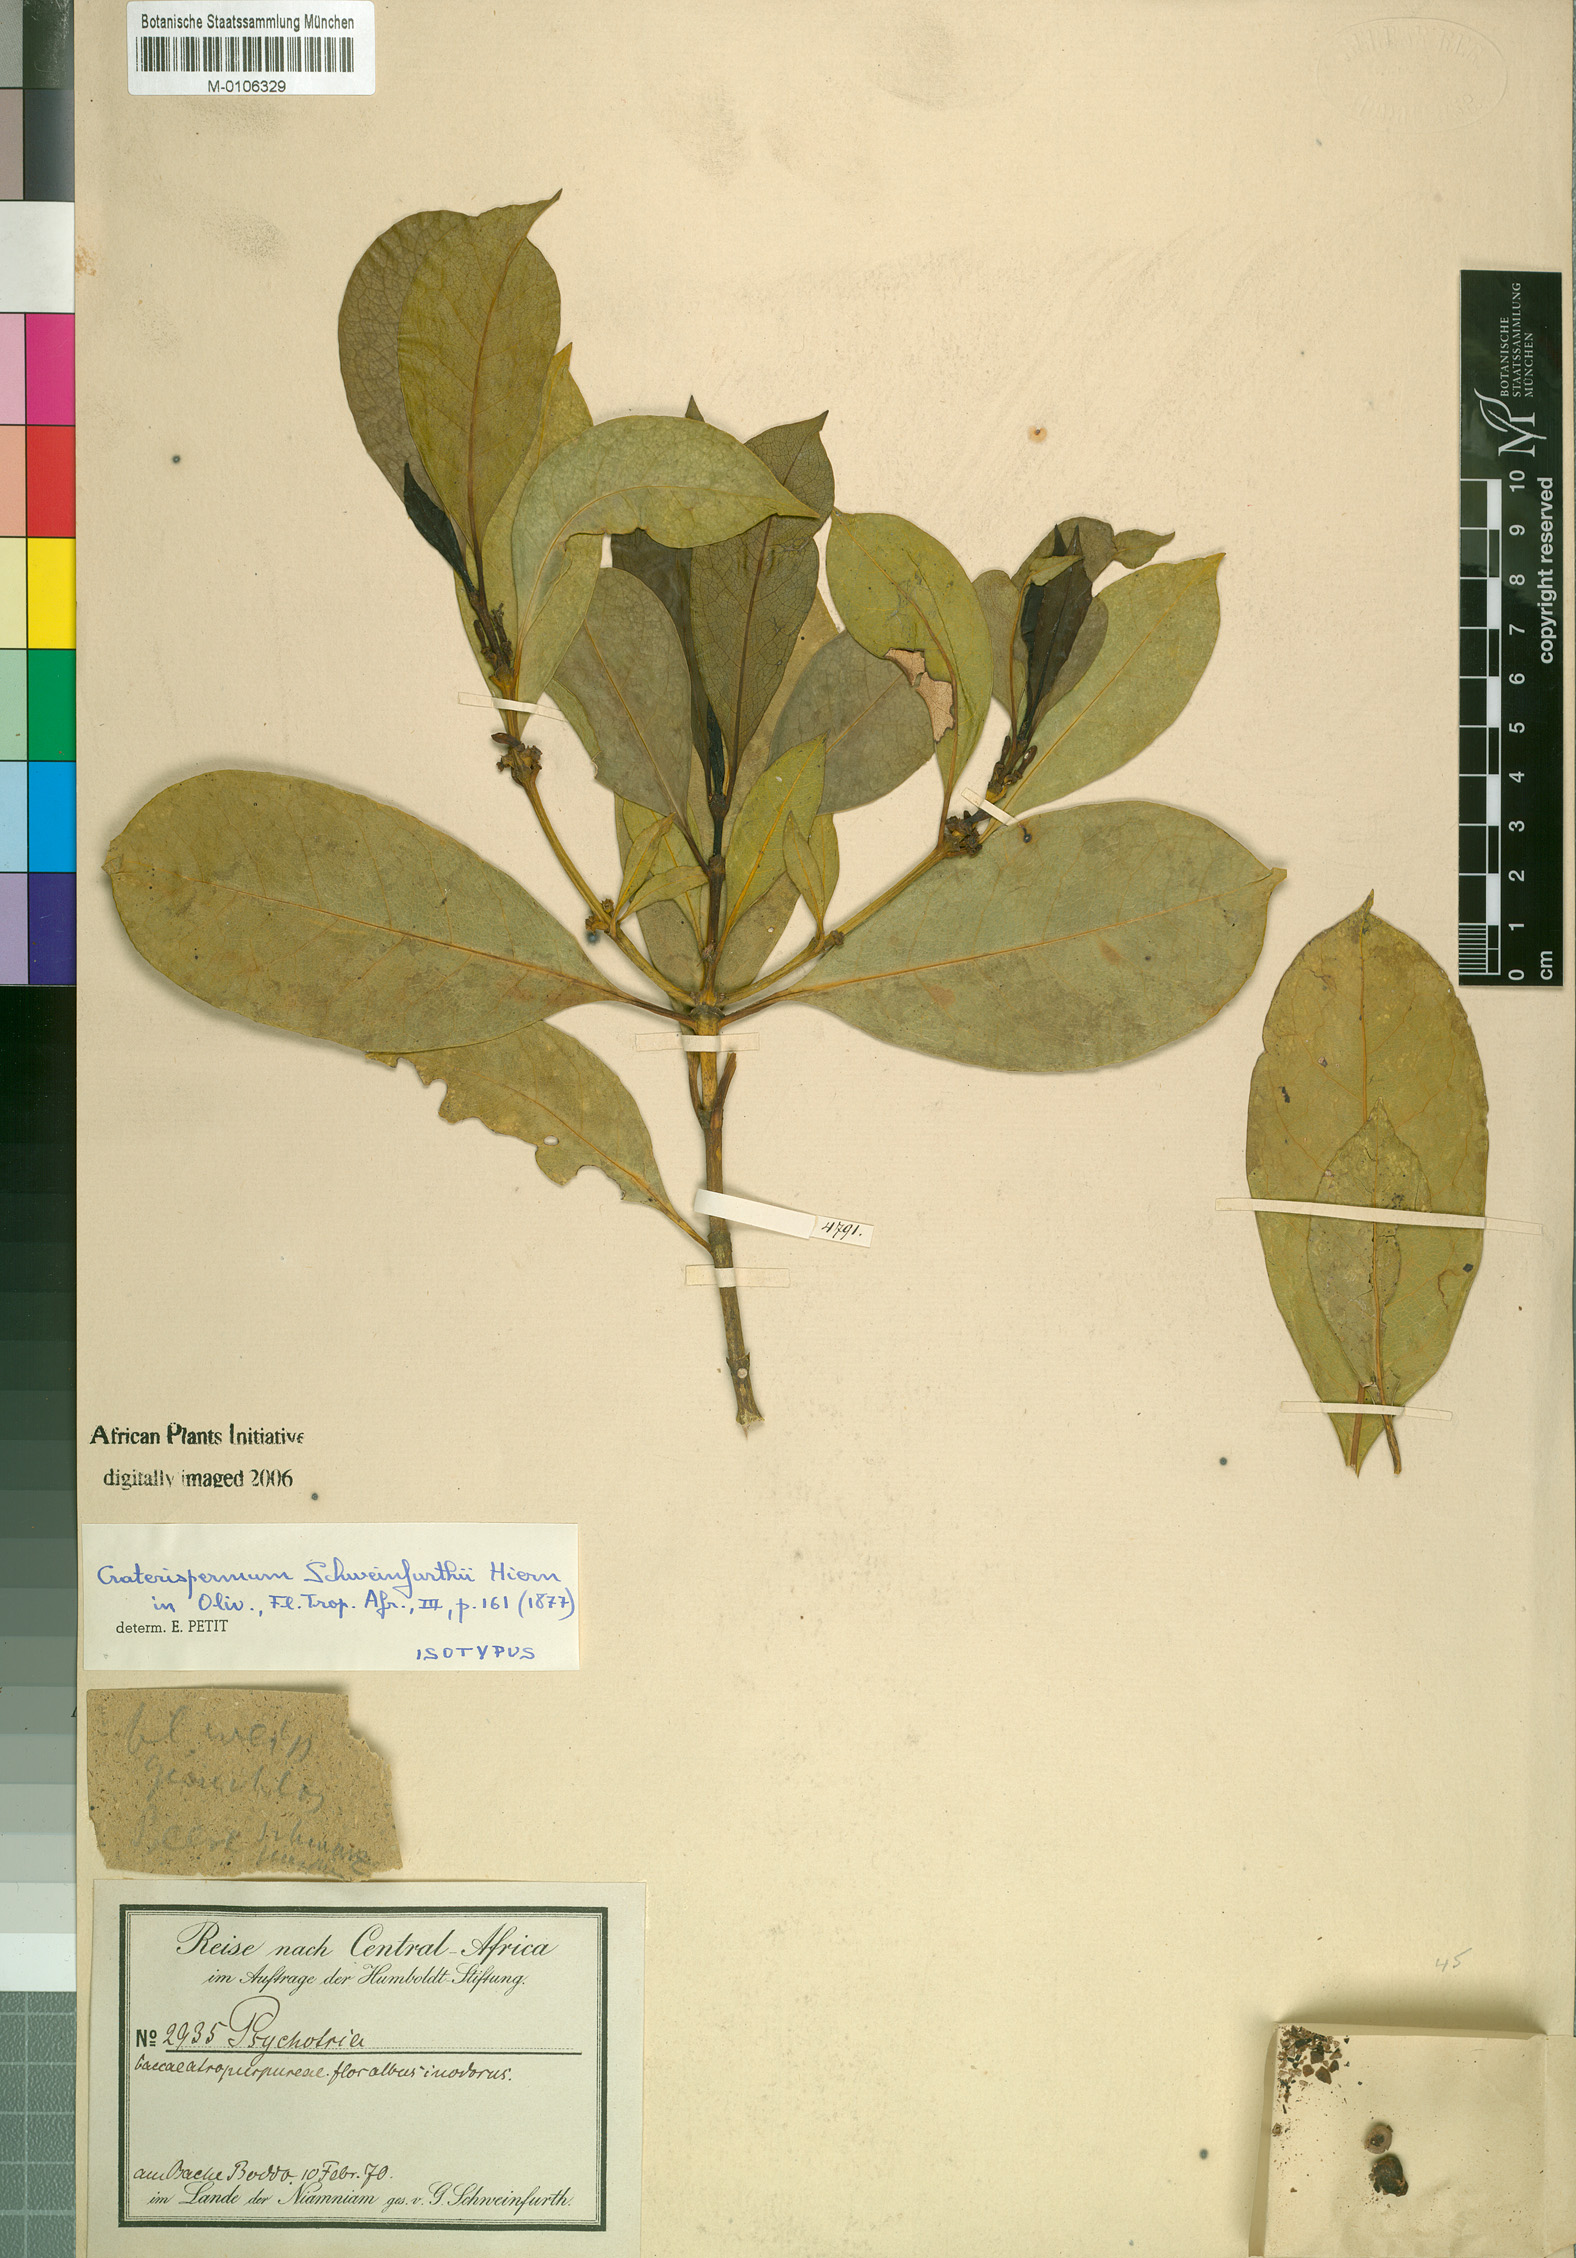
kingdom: Plantae
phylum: Tracheophyta
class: Magnoliopsida
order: Gentianales
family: Rubiaceae
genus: Craterispermum
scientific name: Craterispermum schweinfurthii
